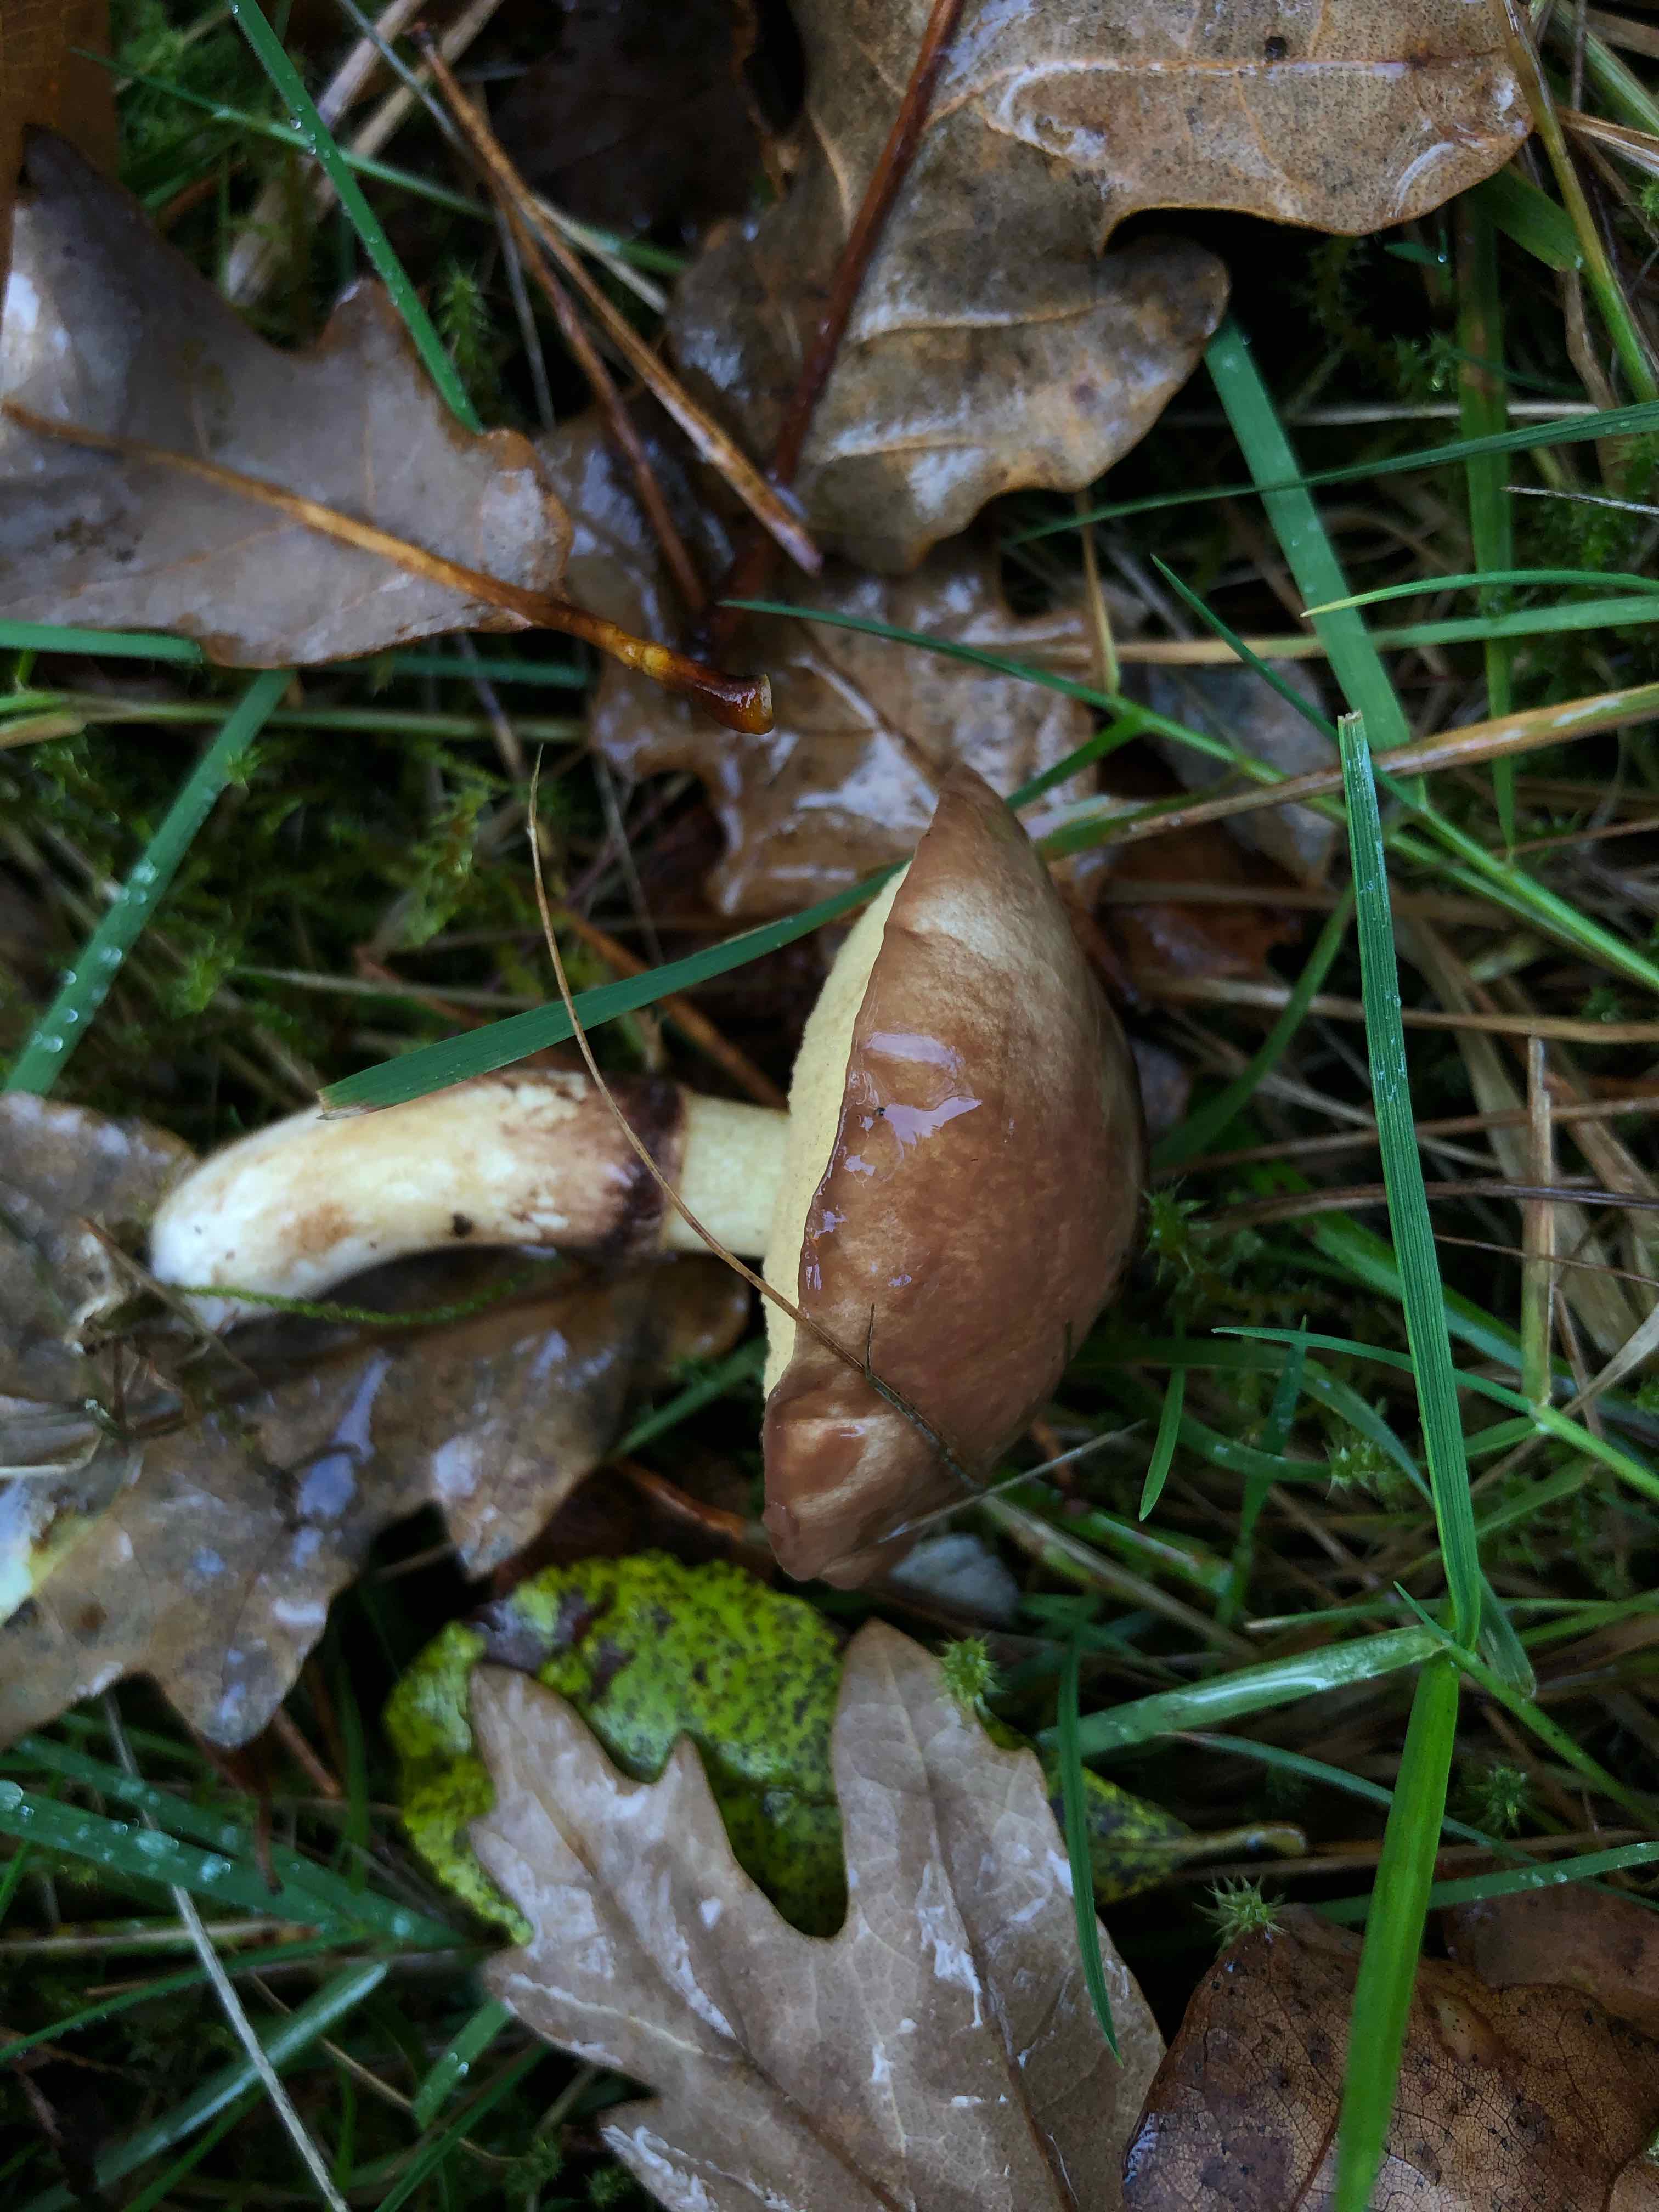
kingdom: Fungi
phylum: Basidiomycota
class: Agaricomycetes
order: Boletales
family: Suillaceae
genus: Suillus
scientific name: Suillus luteus
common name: brungul slimrørhat
